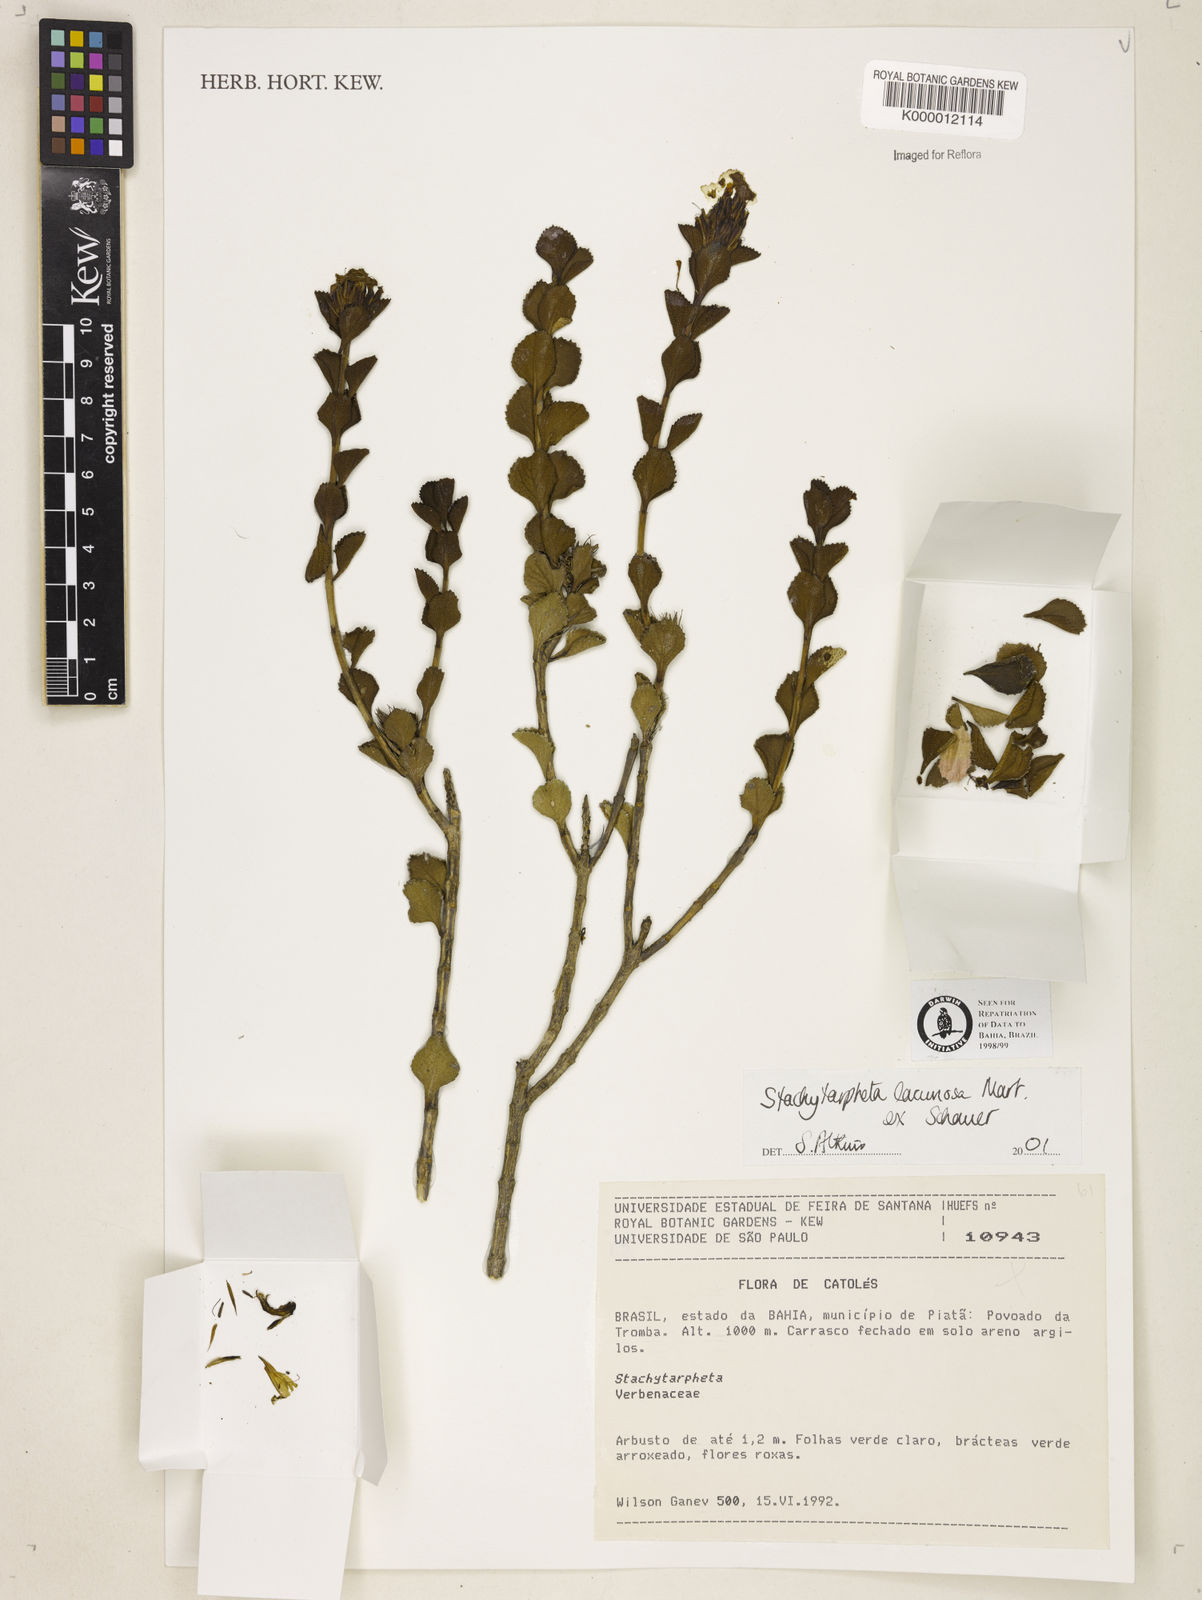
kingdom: Plantae
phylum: Tracheophyta
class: Magnoliopsida
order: Lamiales
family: Verbenaceae
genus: Stachytarpheta
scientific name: Stachytarpheta harleyi
